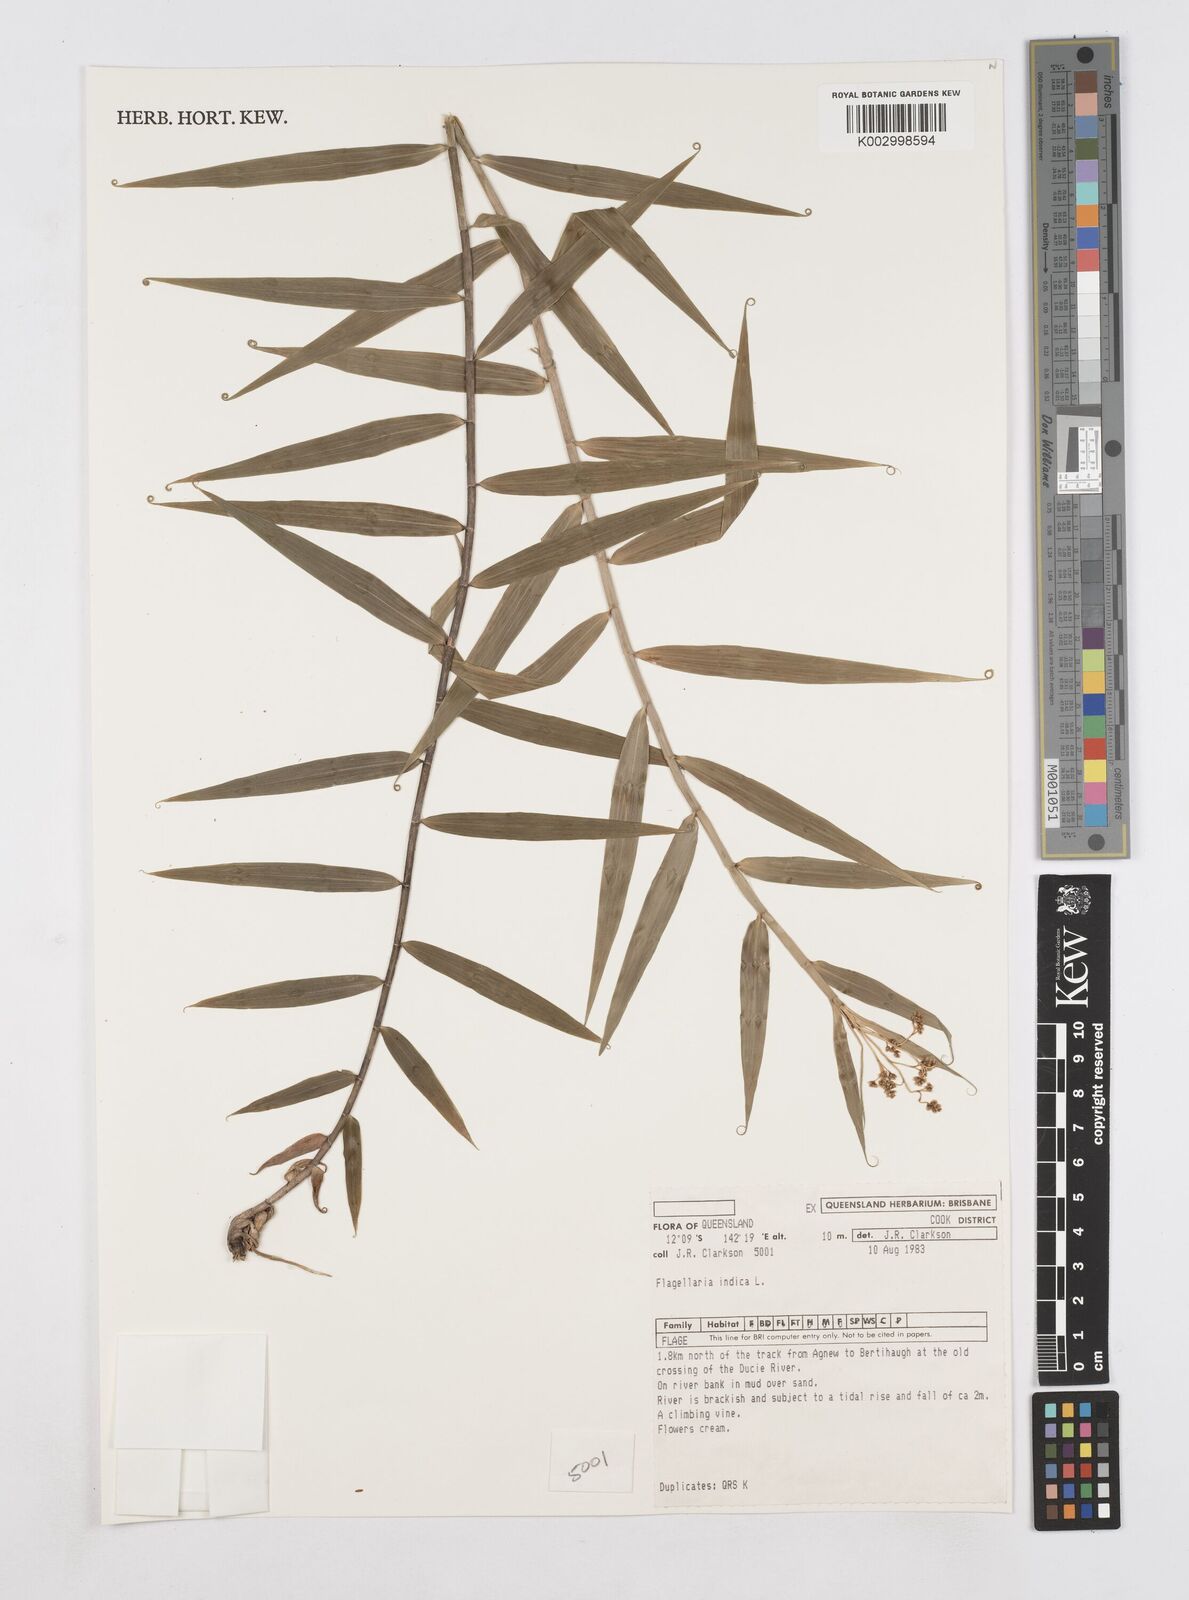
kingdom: Plantae
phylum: Tracheophyta
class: Liliopsida
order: Poales
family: Flagellariaceae
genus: Flagellaria
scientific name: Flagellaria indica
